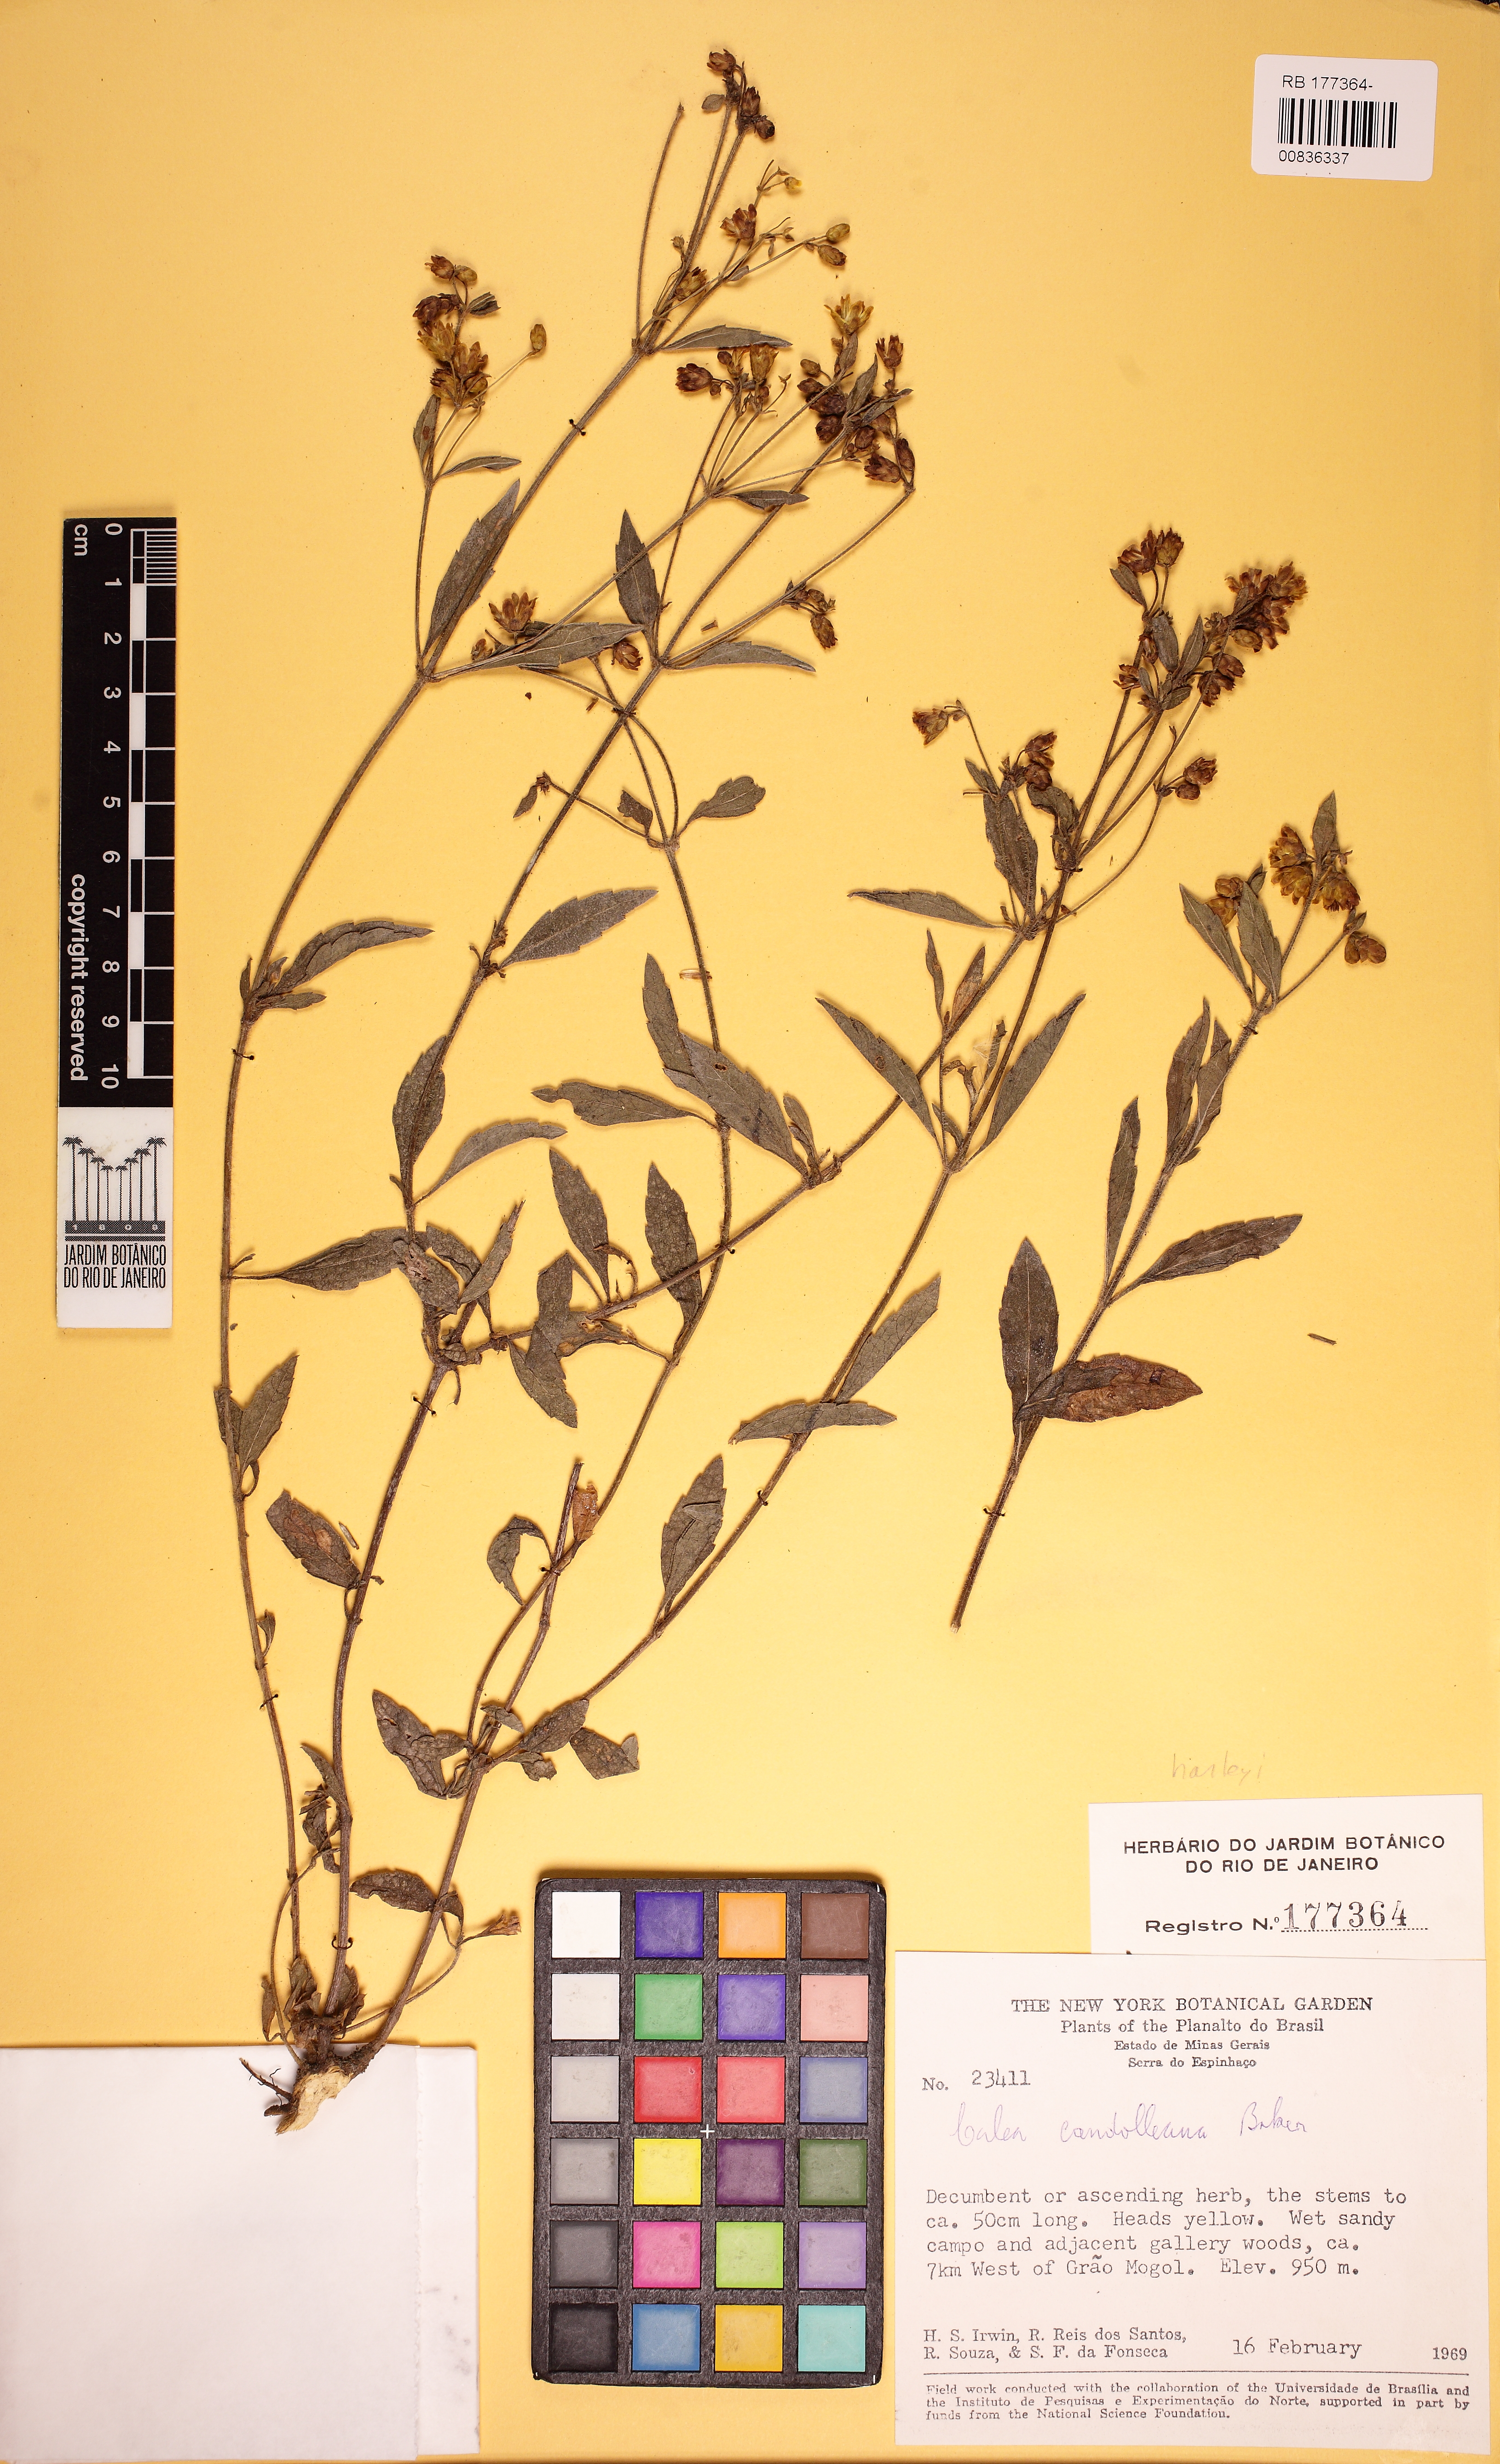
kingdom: Plantae
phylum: Tracheophyta
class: Magnoliopsida
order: Asterales
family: Asteraceae
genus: Calea
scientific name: Calea candolleana
